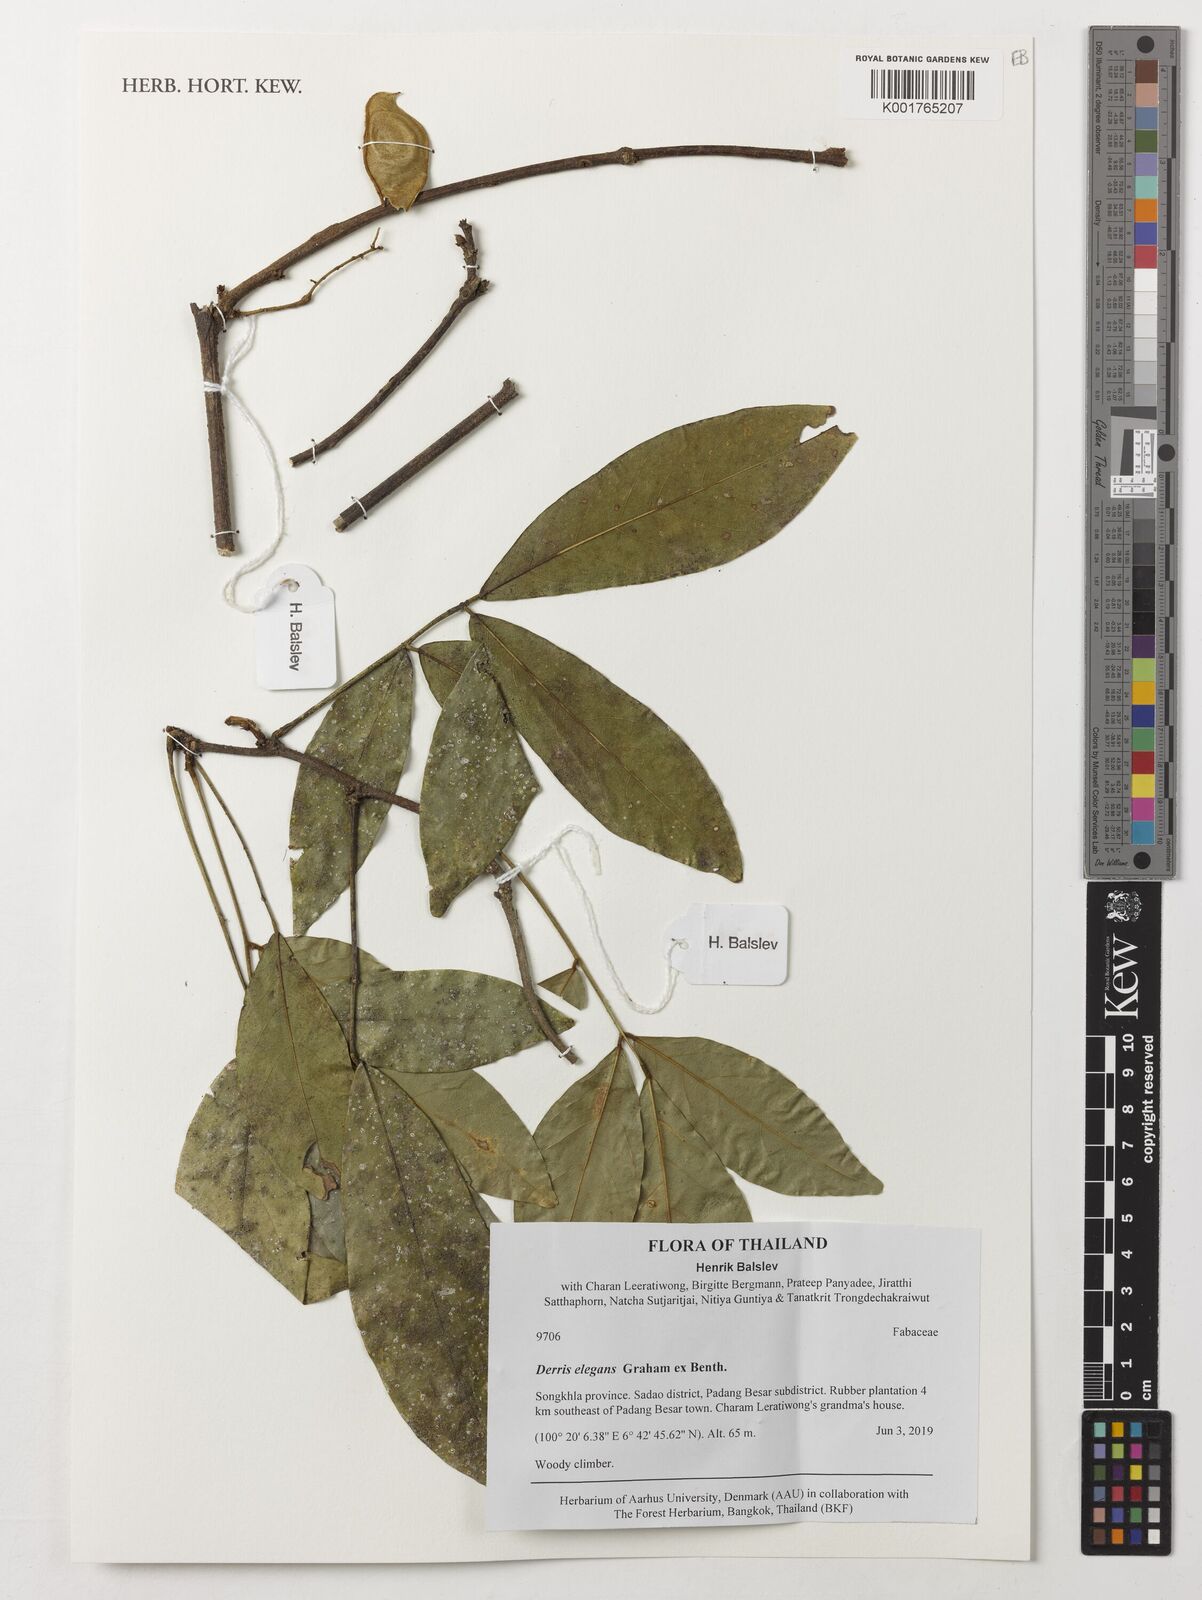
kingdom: Plantae
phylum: Tracheophyta
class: Magnoliopsida
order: Fabales
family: Fabaceae
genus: Derris
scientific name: Derris elegans
